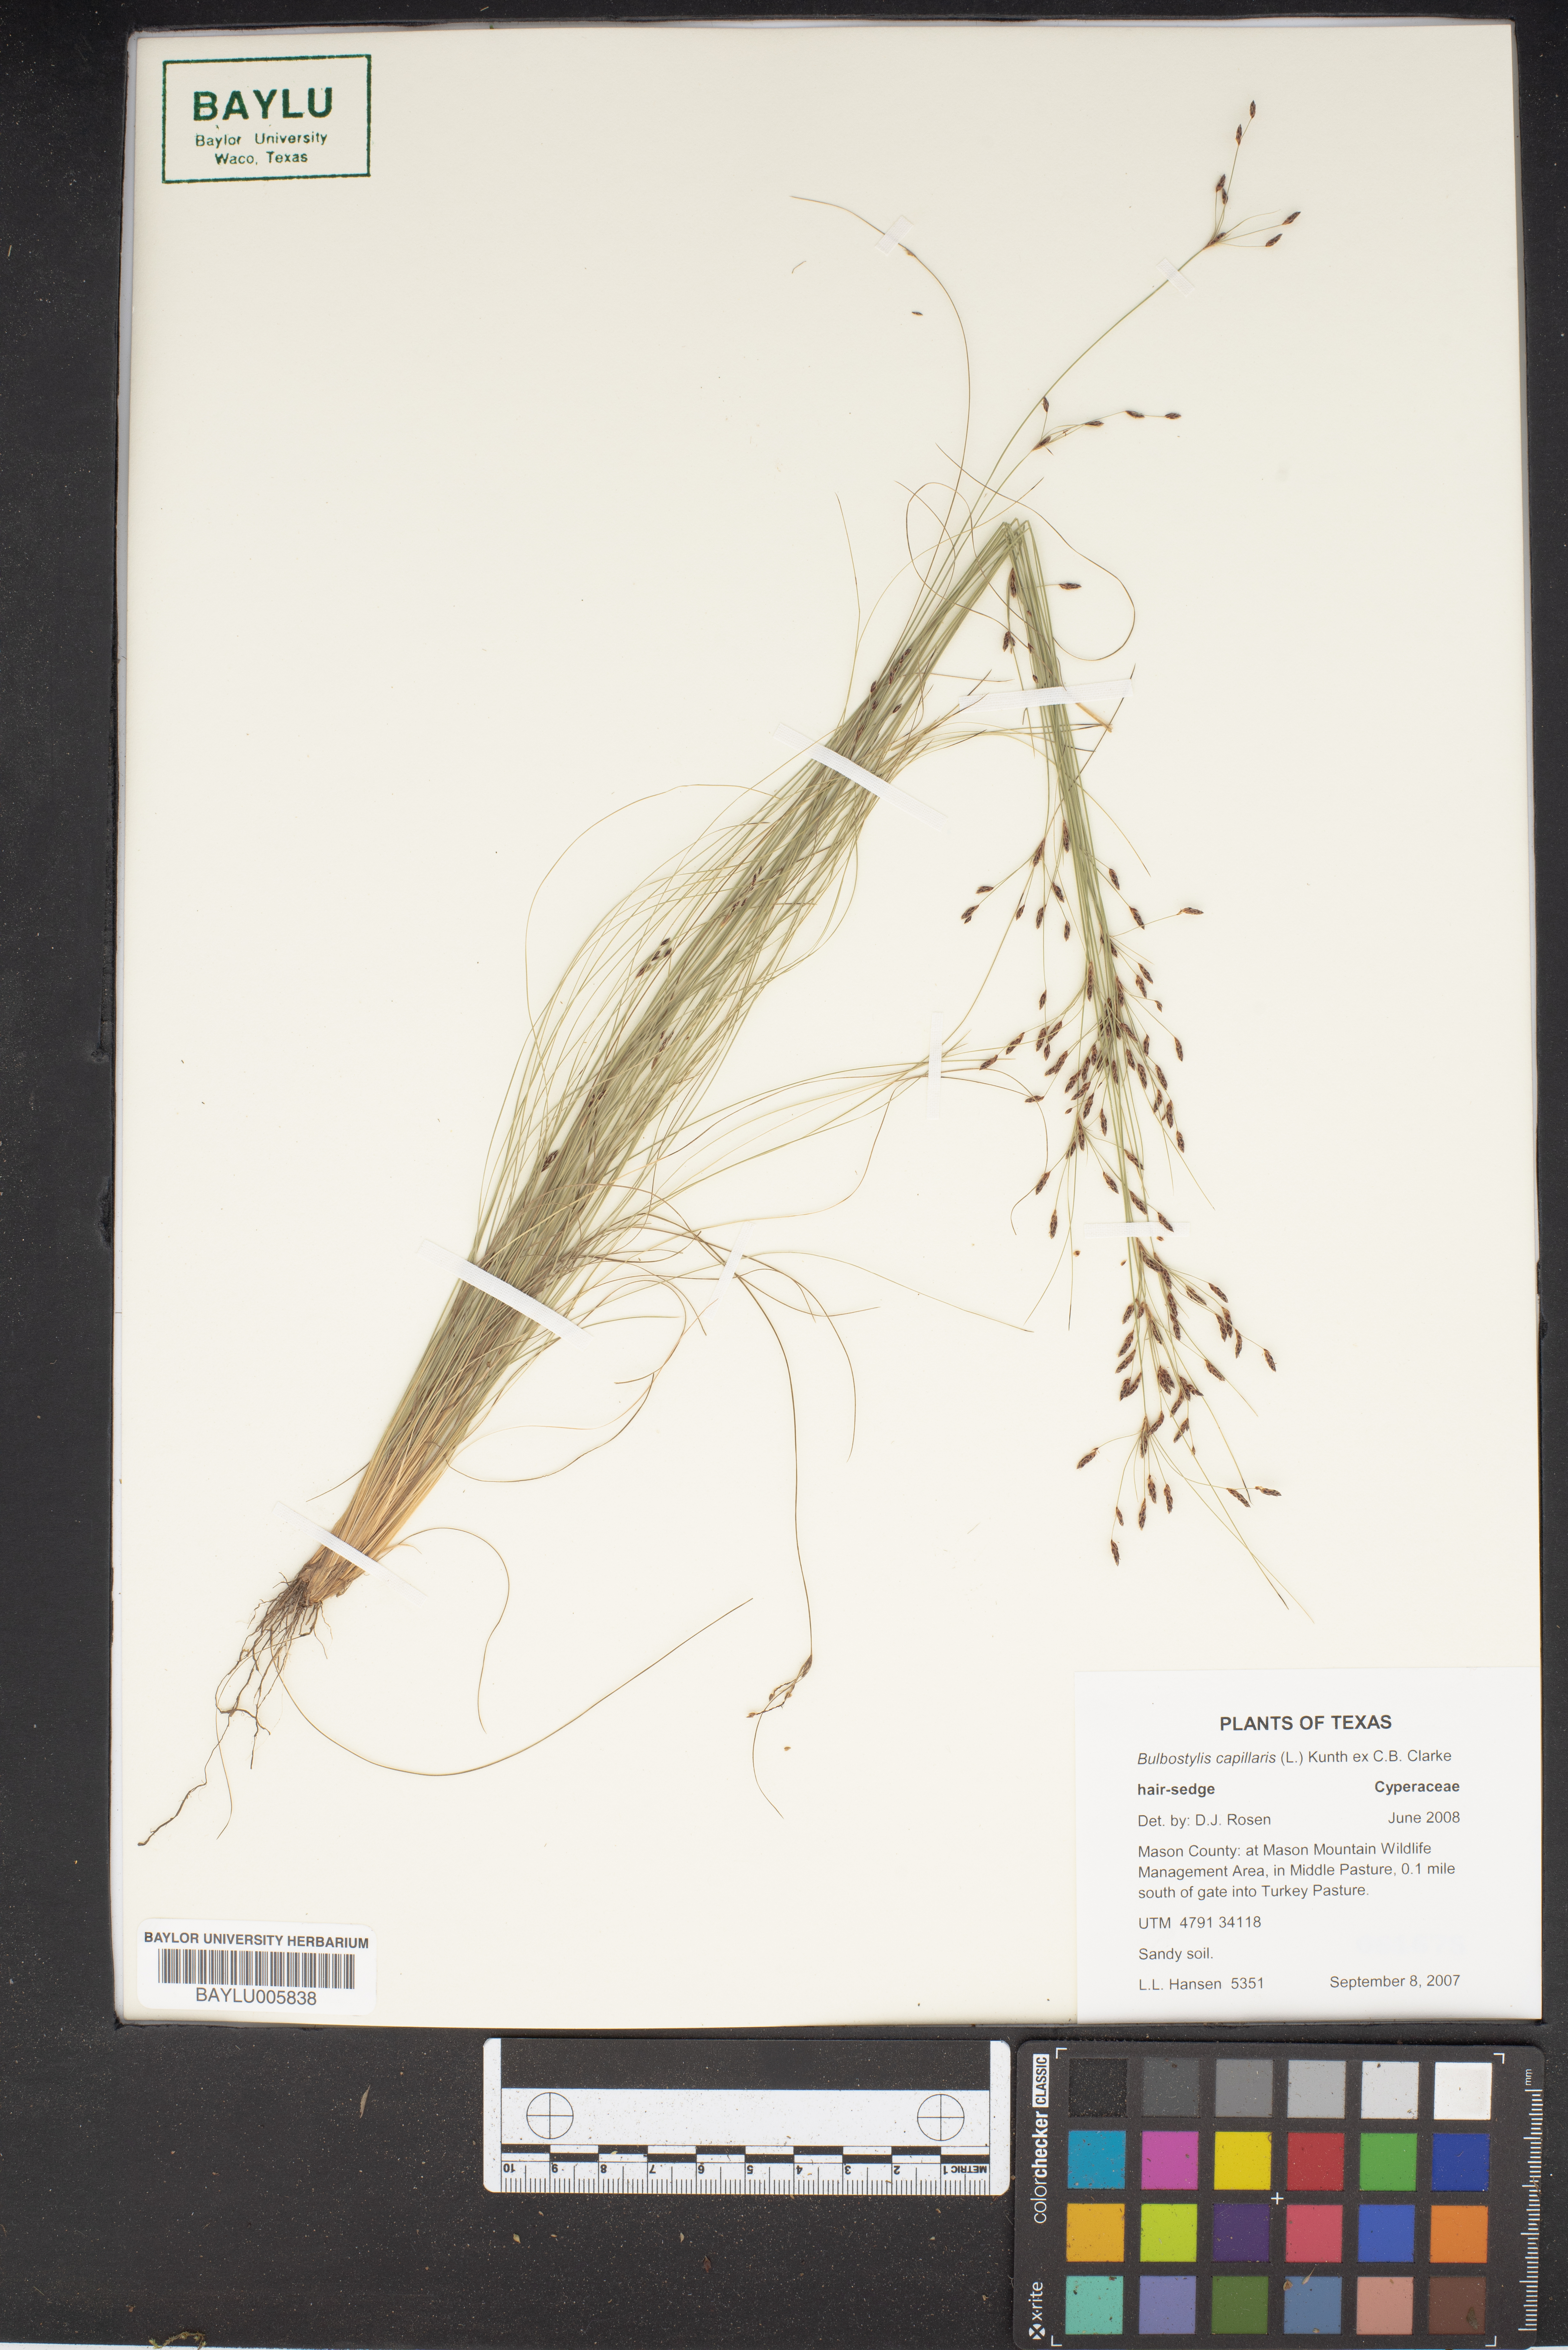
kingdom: Plantae
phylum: Tracheophyta
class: Liliopsida
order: Poales
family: Cyperaceae
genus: Bulbostylis
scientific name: Bulbostylis capillaris
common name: Densetuft hairsedge
